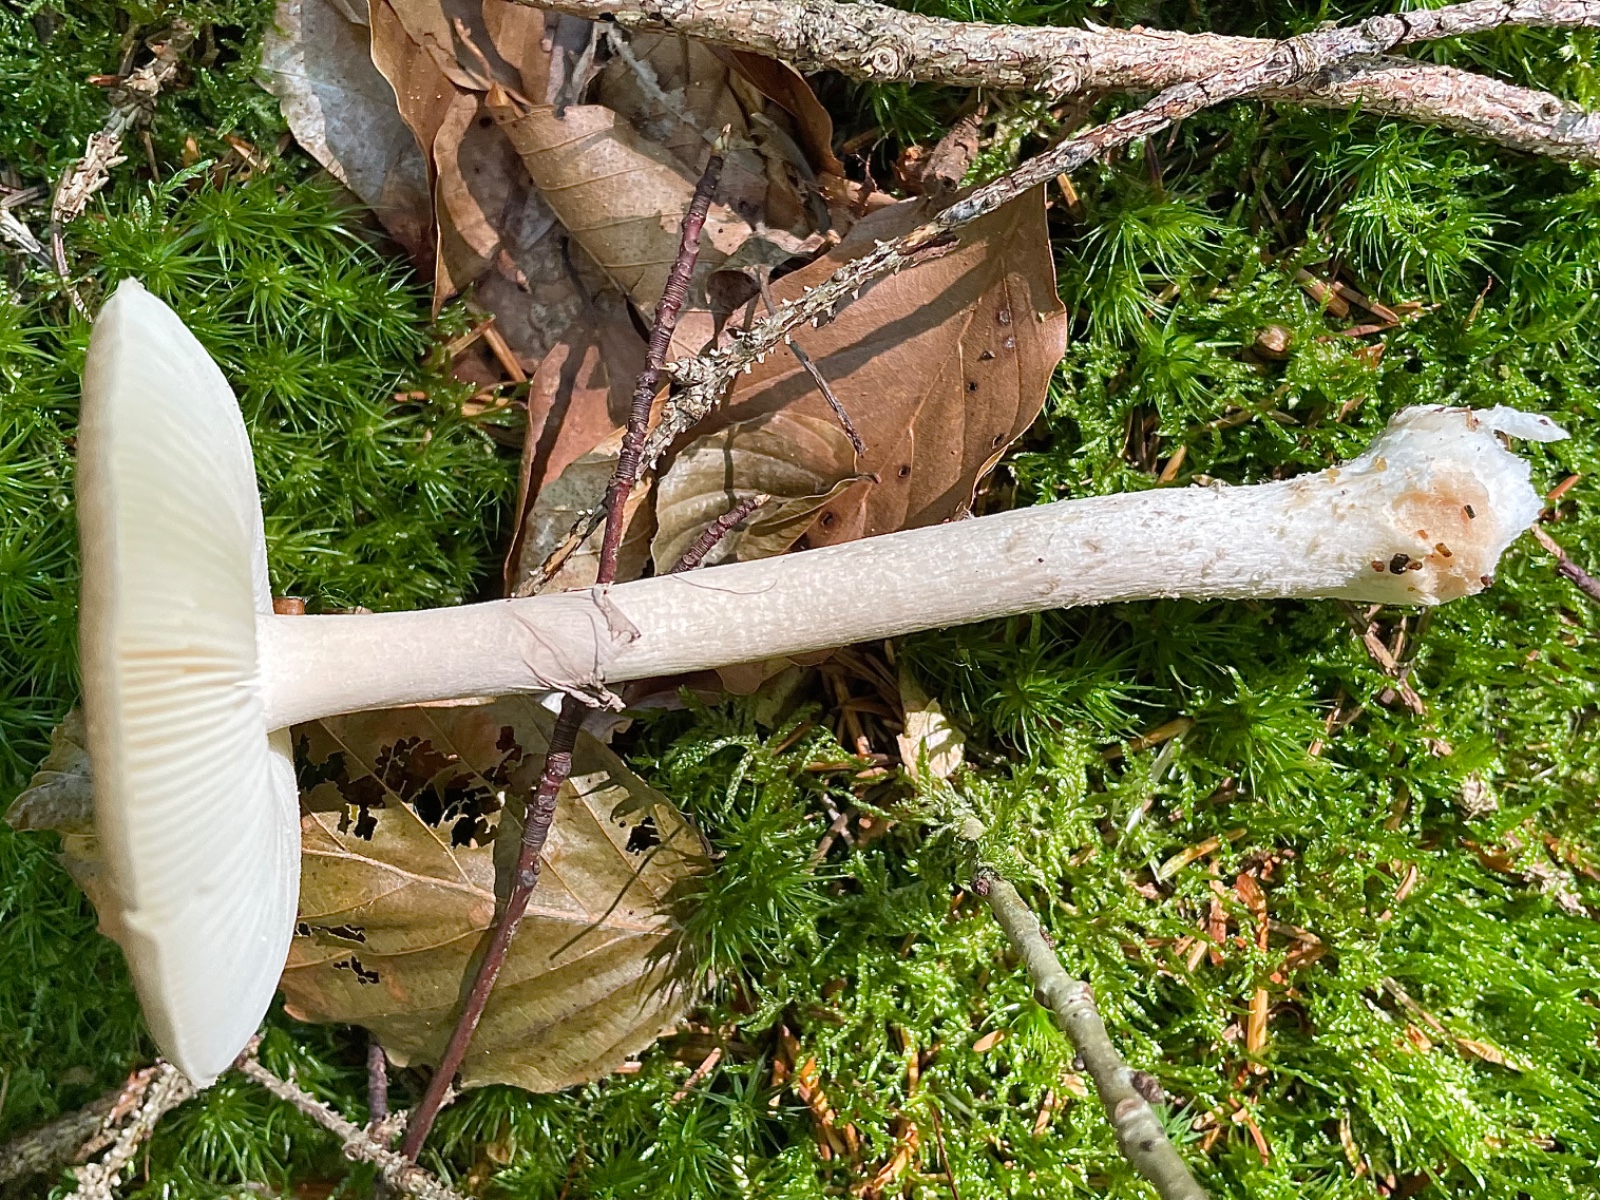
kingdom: Fungi
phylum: Basidiomycota
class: Agaricomycetes
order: Agaricales
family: Amanitaceae
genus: Amanita
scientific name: Amanita porphyria
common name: porfyr-fluesvamp
